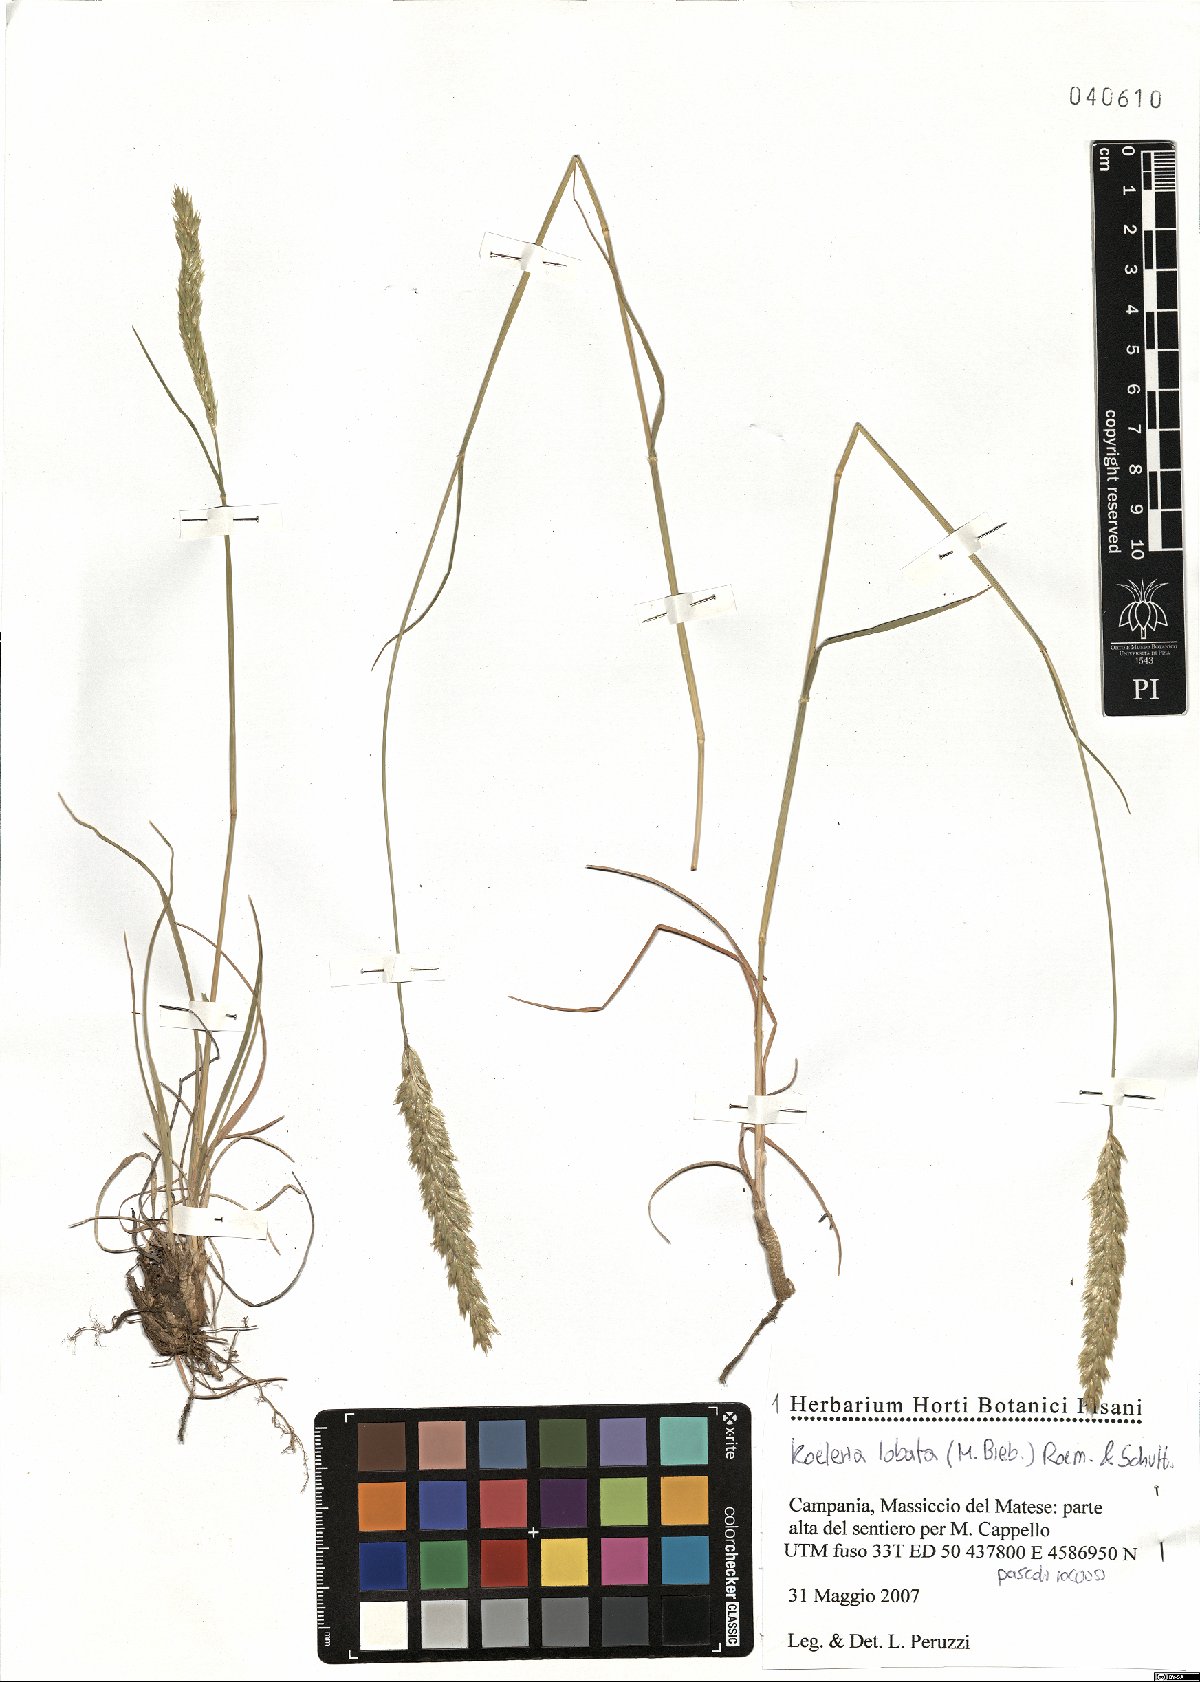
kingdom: Plantae
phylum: Tracheophyta
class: Liliopsida
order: Poales
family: Poaceae
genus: Koeleria
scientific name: Koeleria brevis
